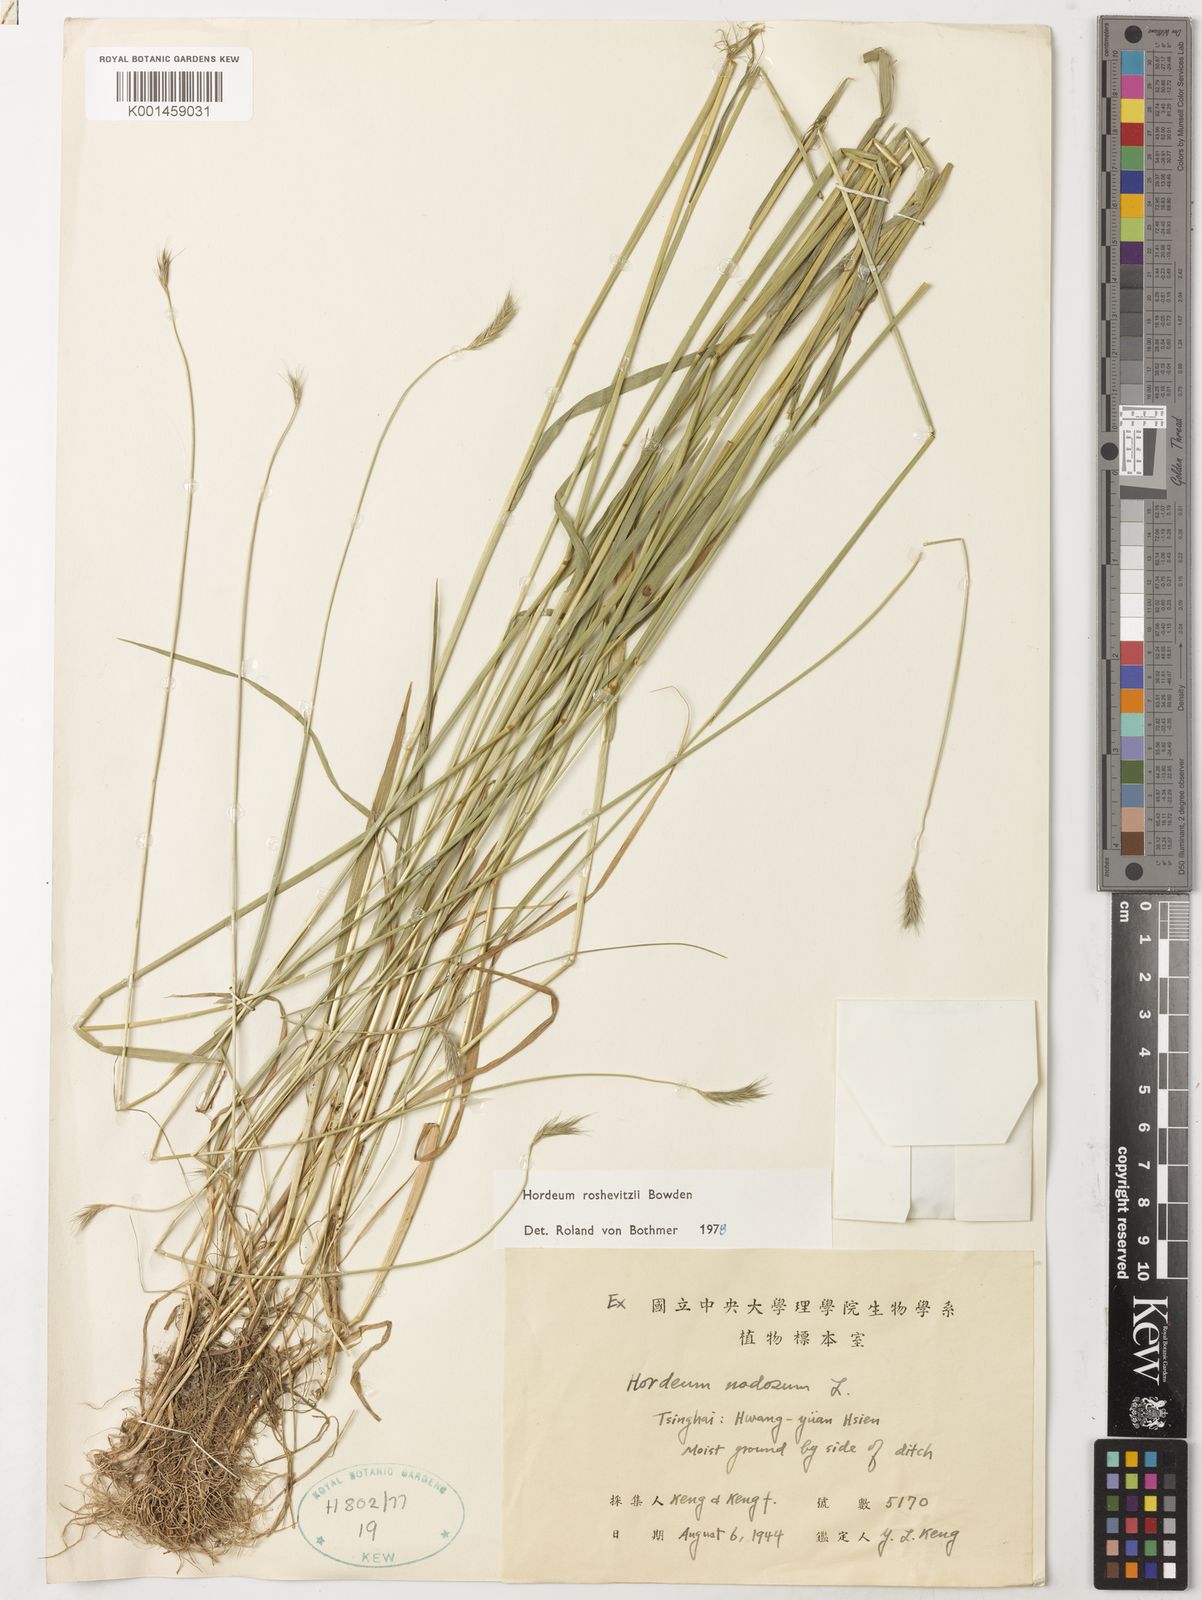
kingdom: Plantae
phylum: Tracheophyta
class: Liliopsida
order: Poales
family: Poaceae
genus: Hordeum
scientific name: Hordeum roshevitzii
